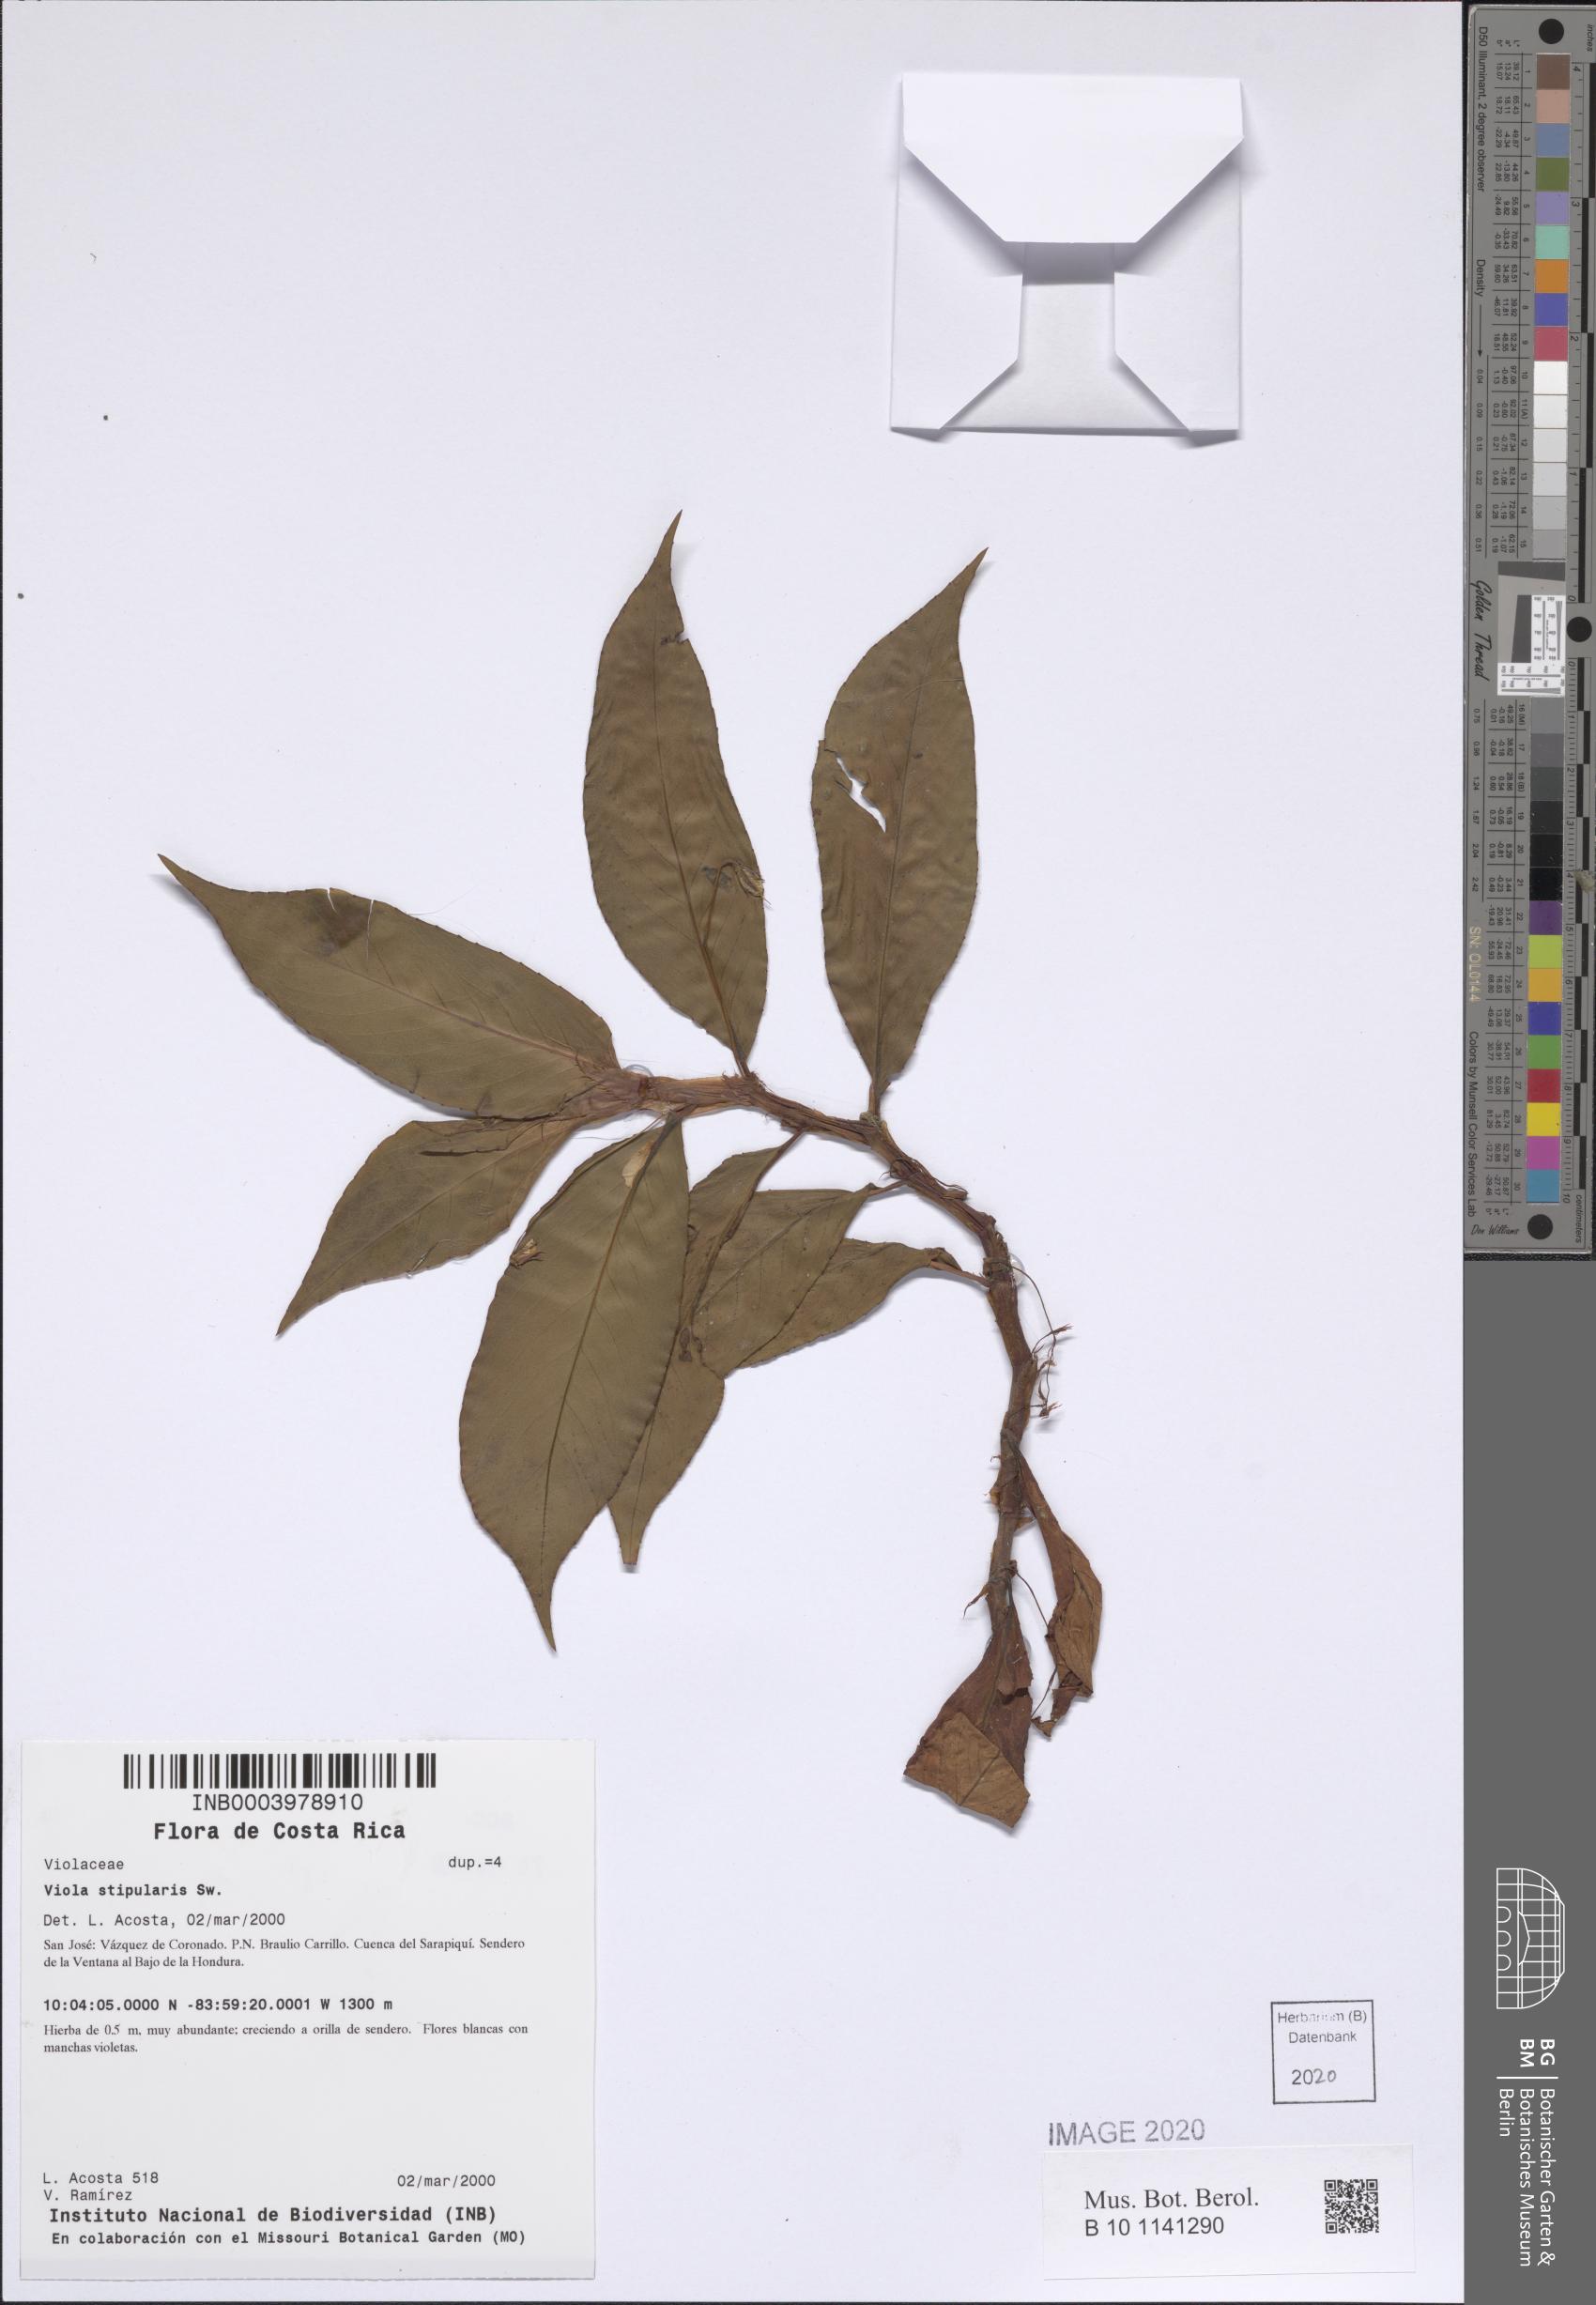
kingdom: Plantae
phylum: Tracheophyta
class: Magnoliopsida
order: Malpighiales
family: Violaceae
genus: Viola
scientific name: Viola stipularis
